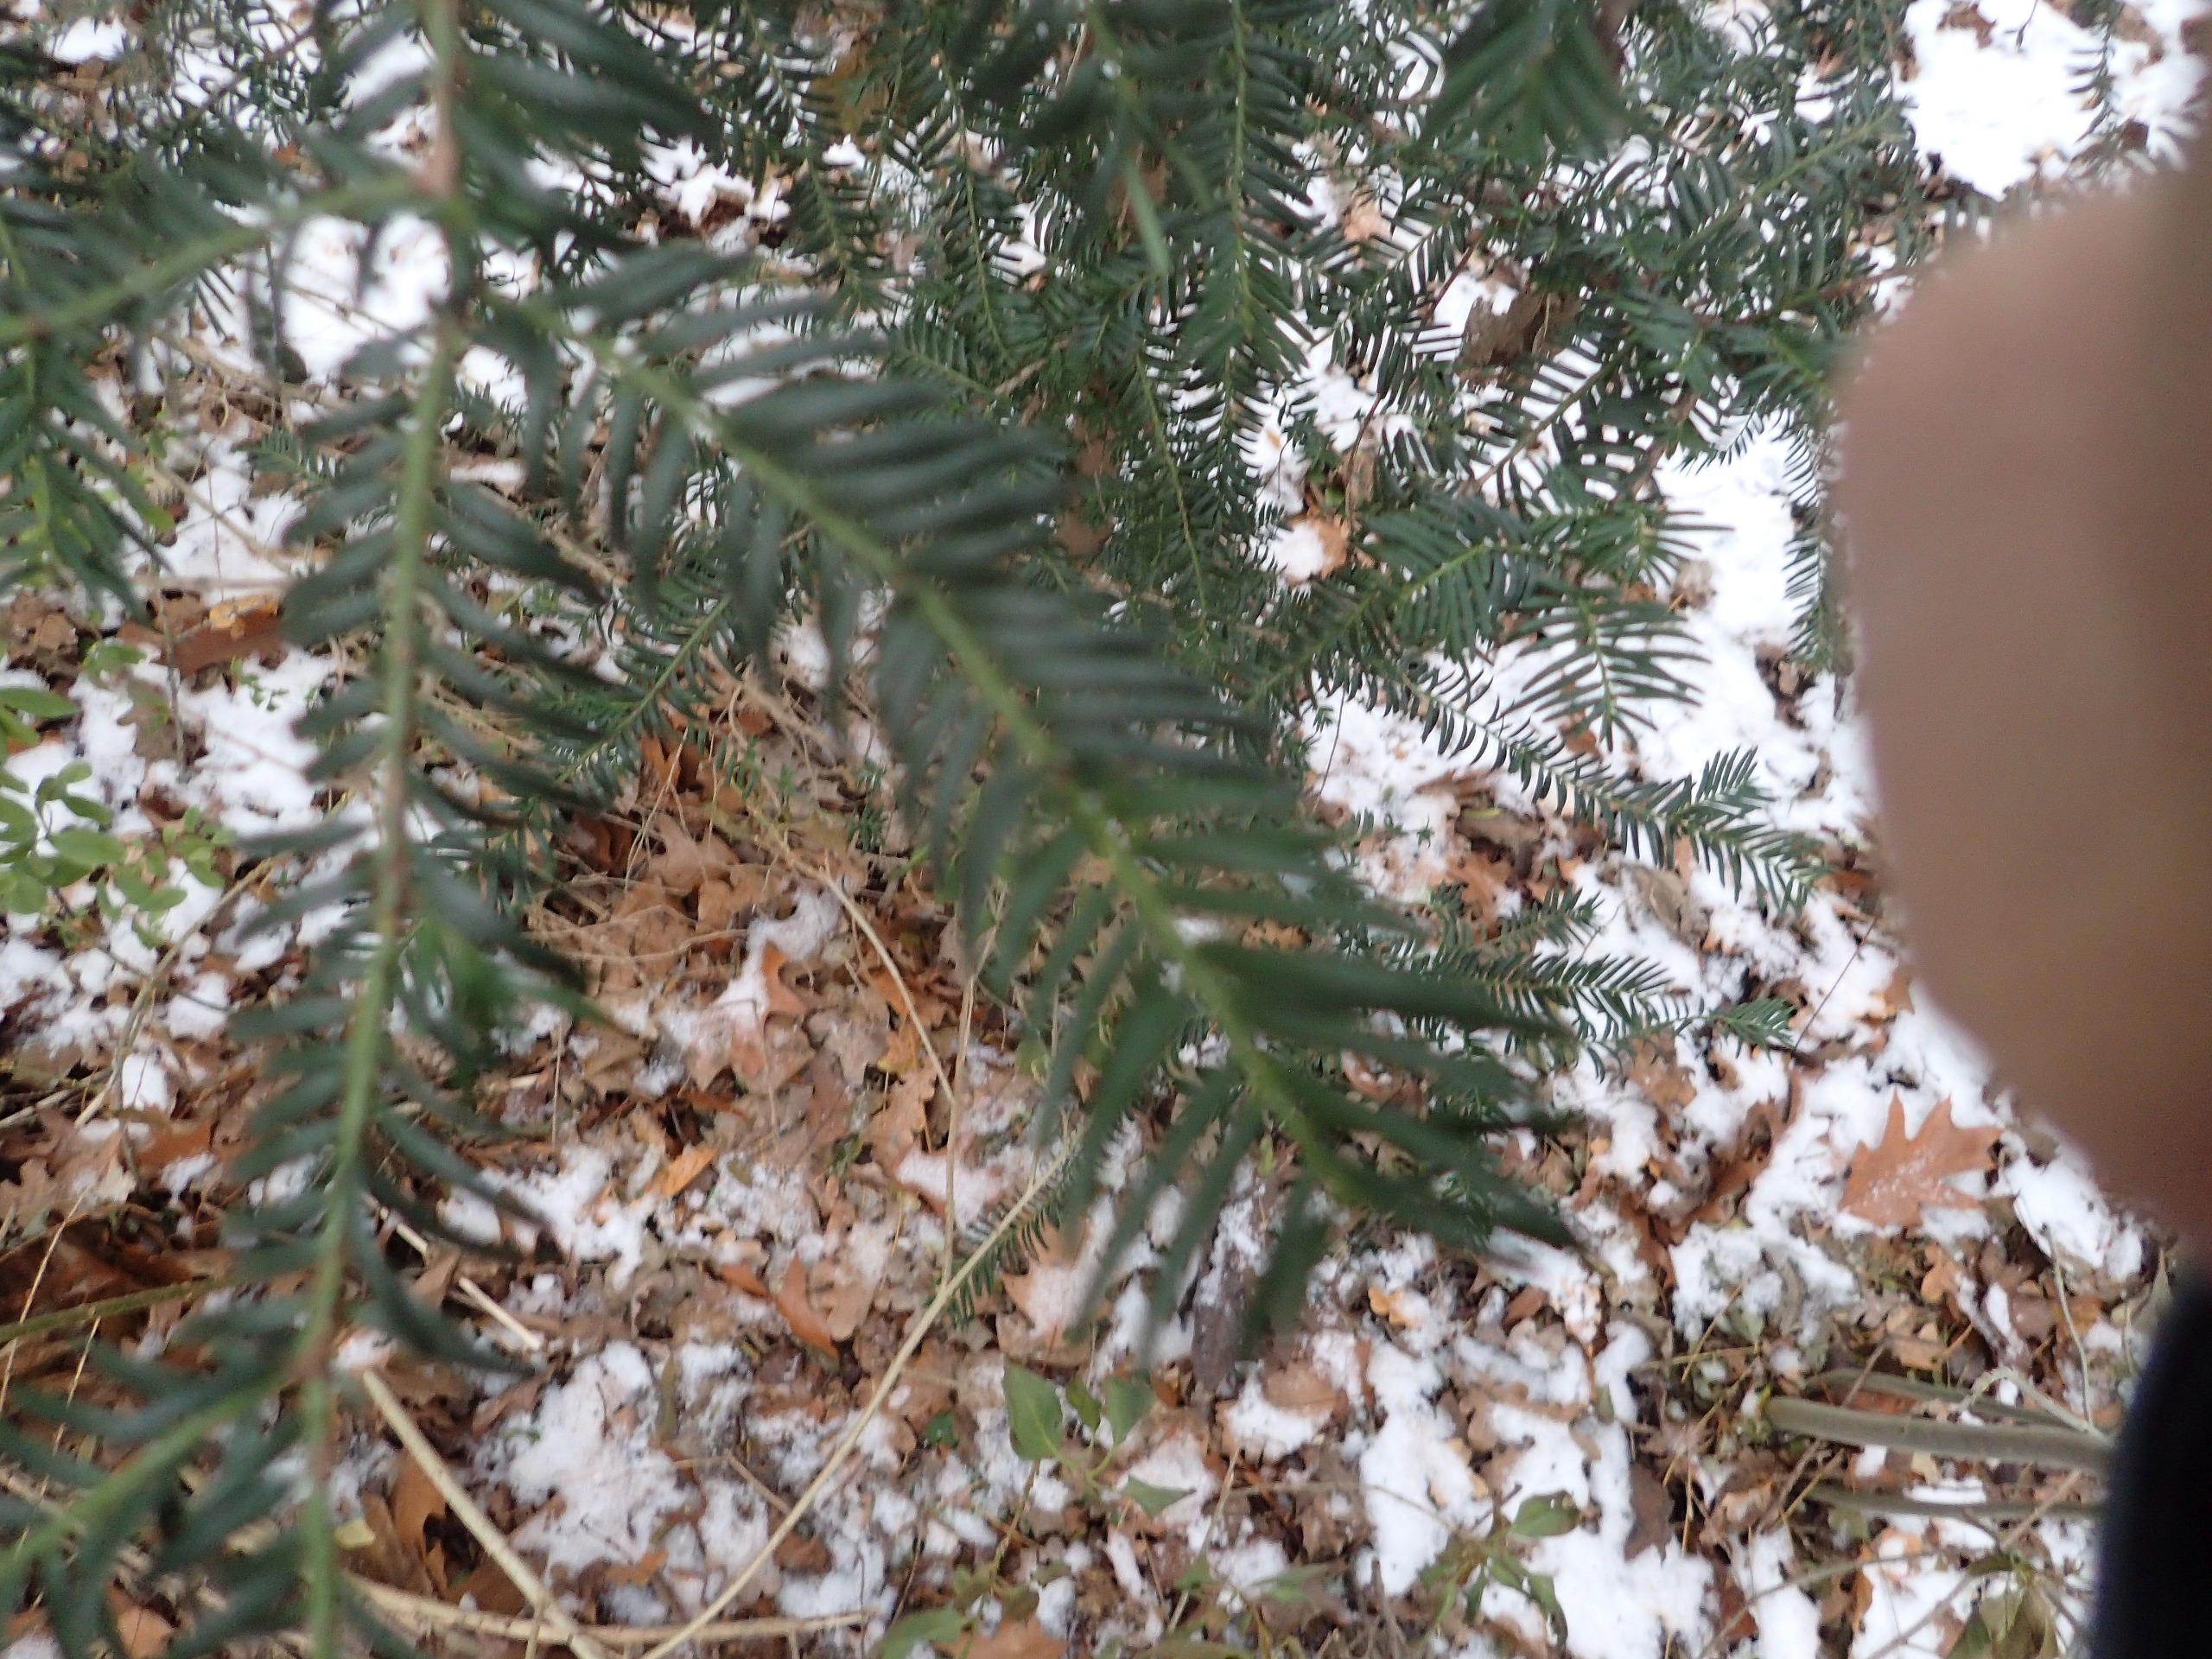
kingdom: Plantae
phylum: Tracheophyta
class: Pinopsida
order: Pinales
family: Taxaceae
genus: Taxus
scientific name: Taxus baccata
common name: Almindelig taks
